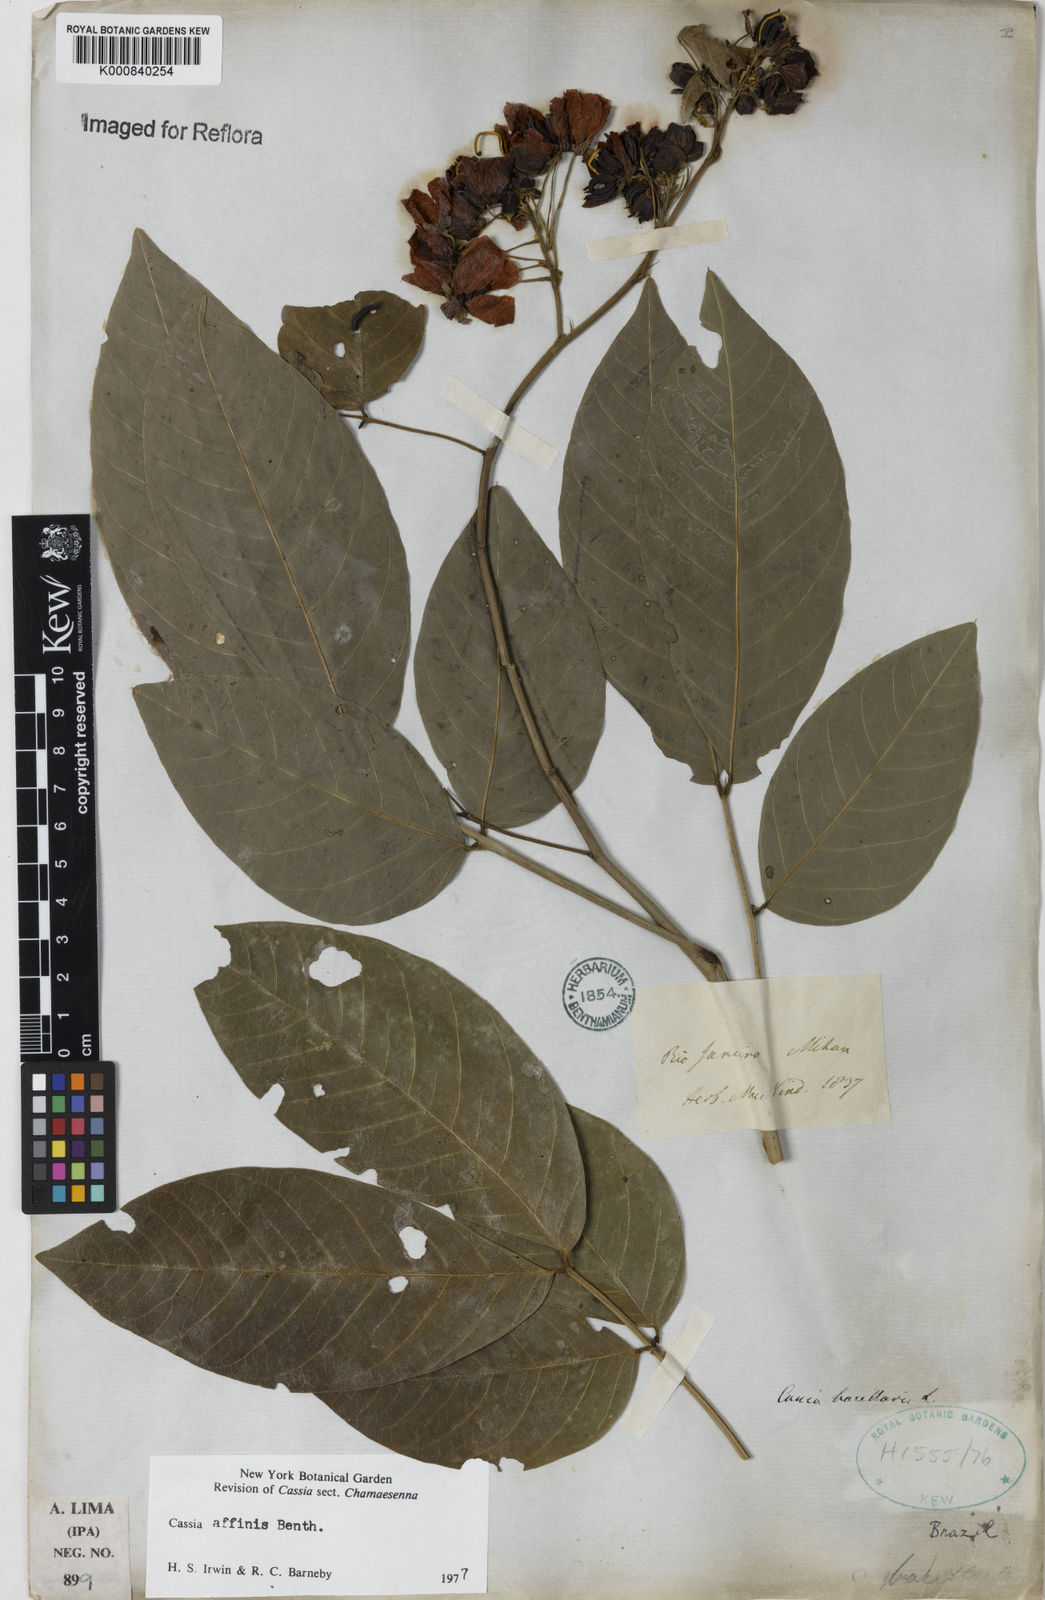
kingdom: Plantae
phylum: Tracheophyta
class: Magnoliopsida
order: Fabales
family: Fabaceae
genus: Senna
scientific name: Senna affinis
